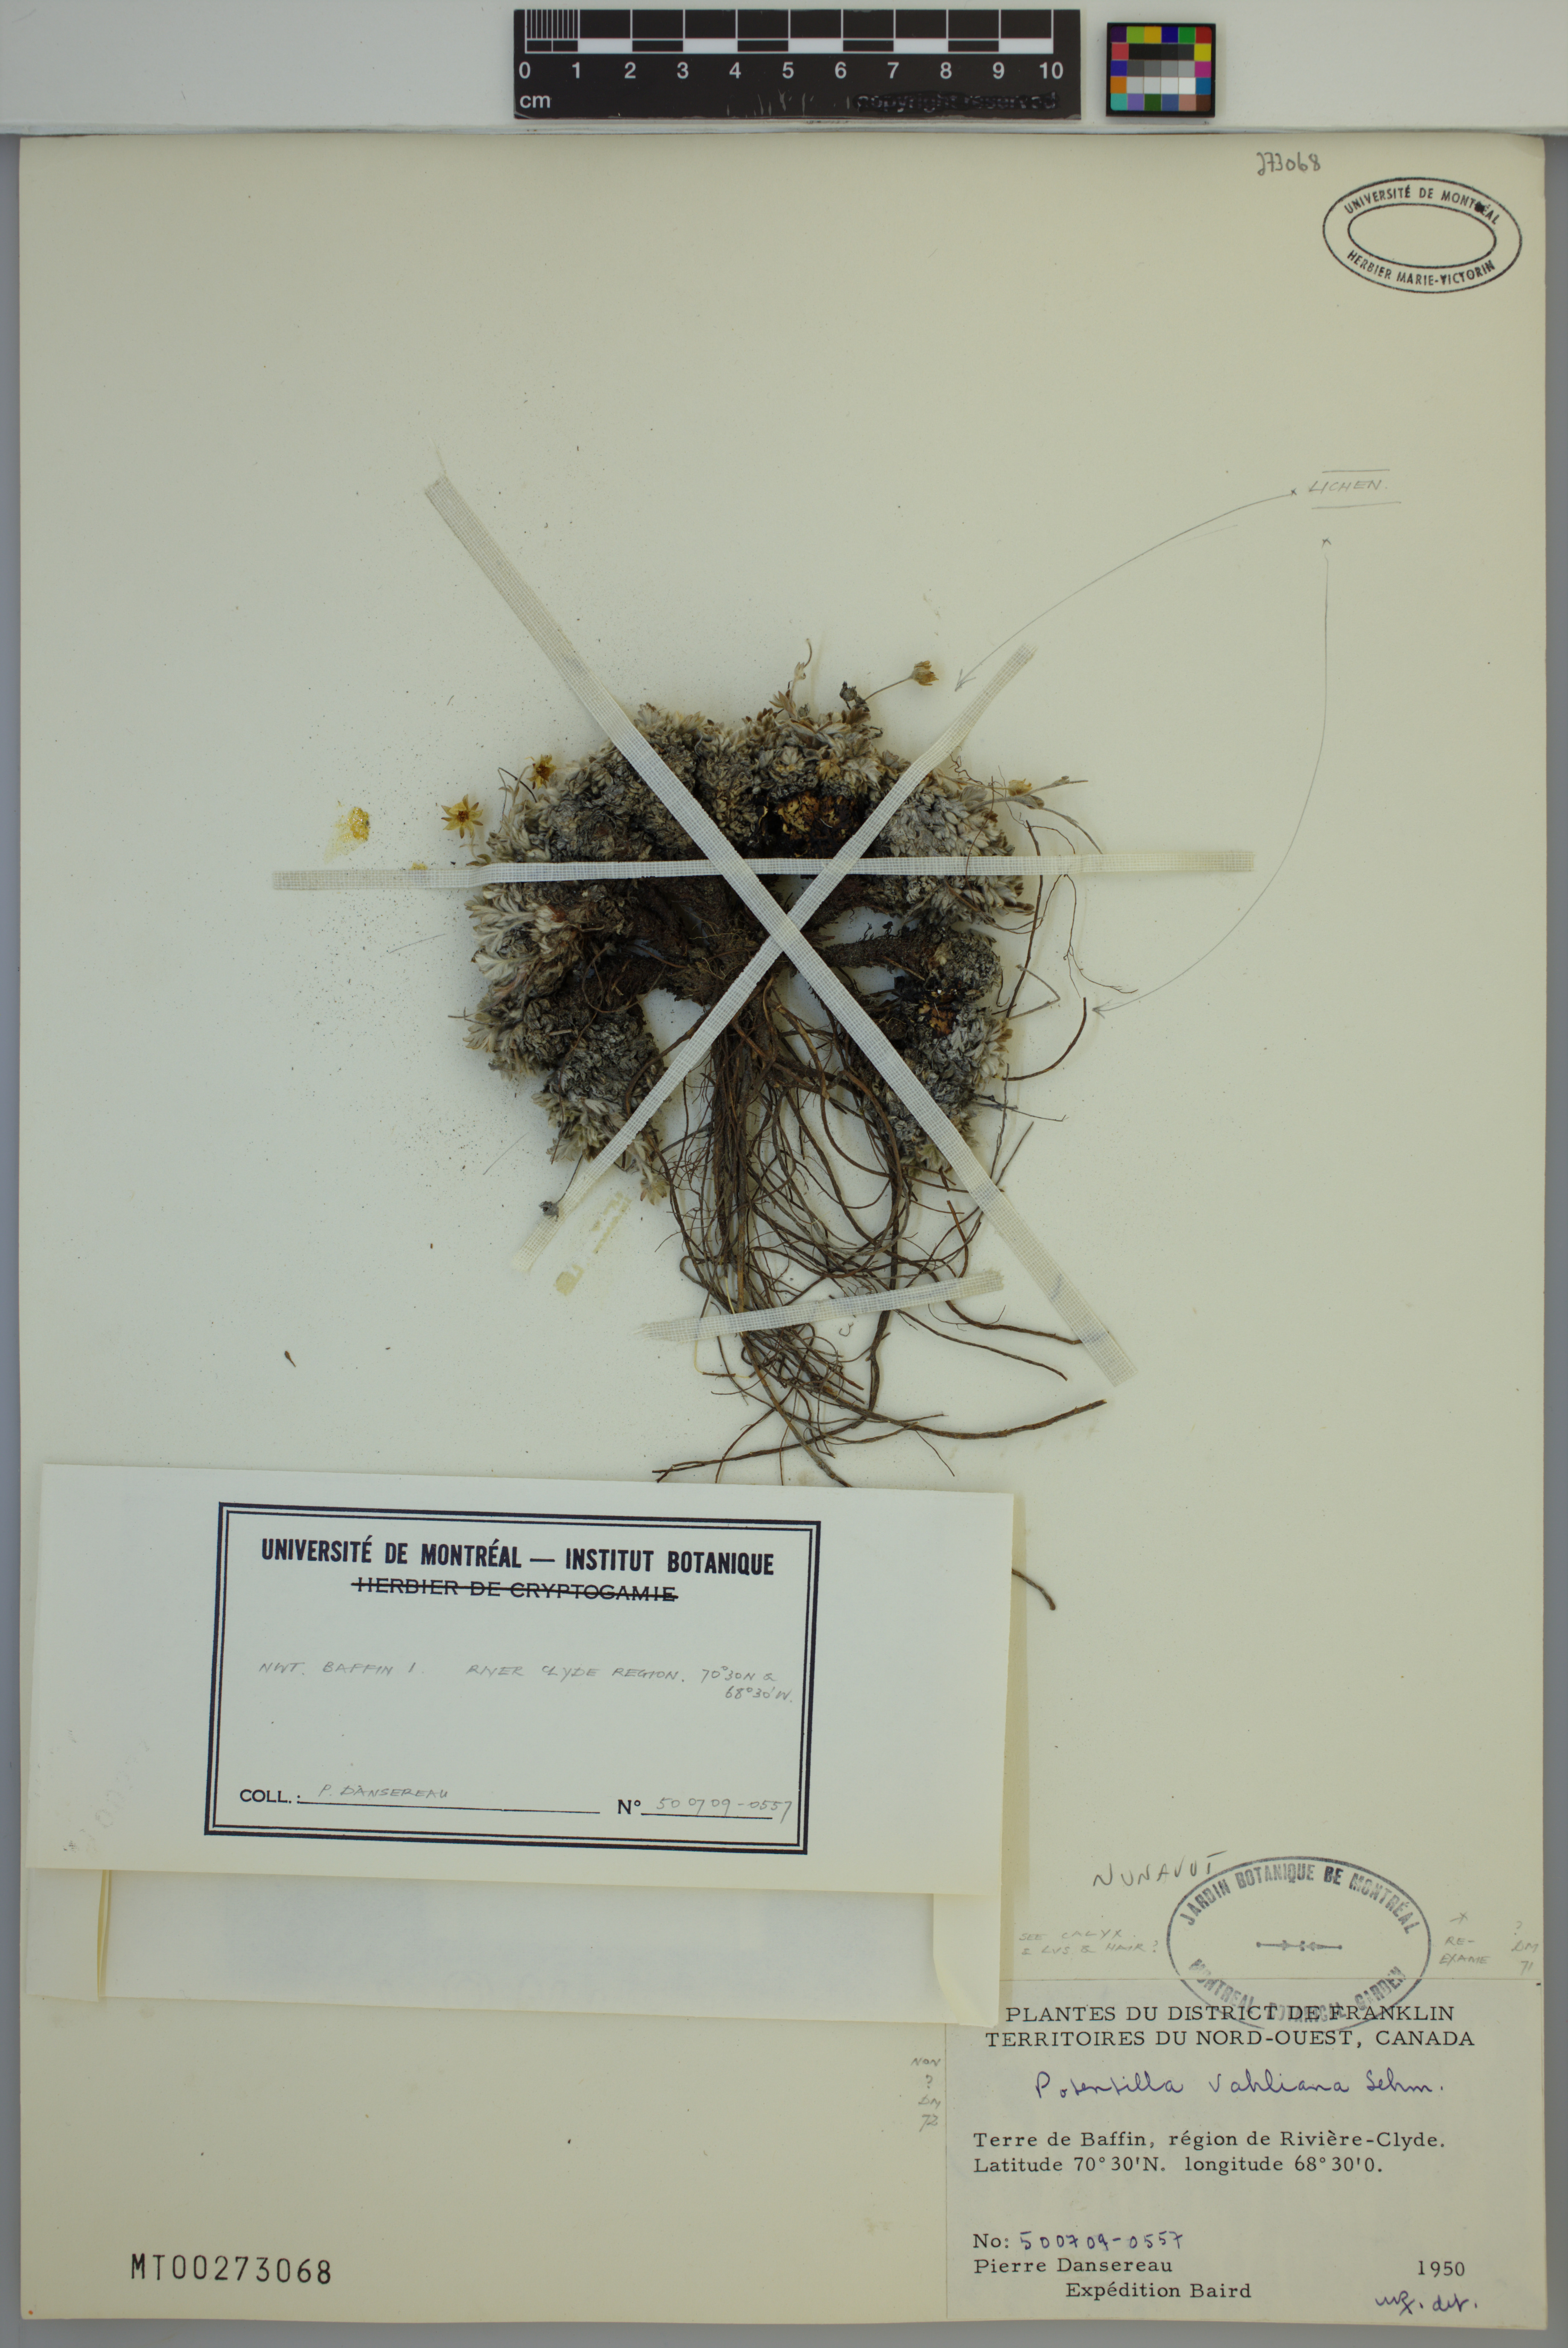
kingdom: Plantae
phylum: Tracheophyta
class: Magnoliopsida
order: Rosales
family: Rosaceae
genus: Potentilla
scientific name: Potentilla vahliana
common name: Vahl's cinquefoil
